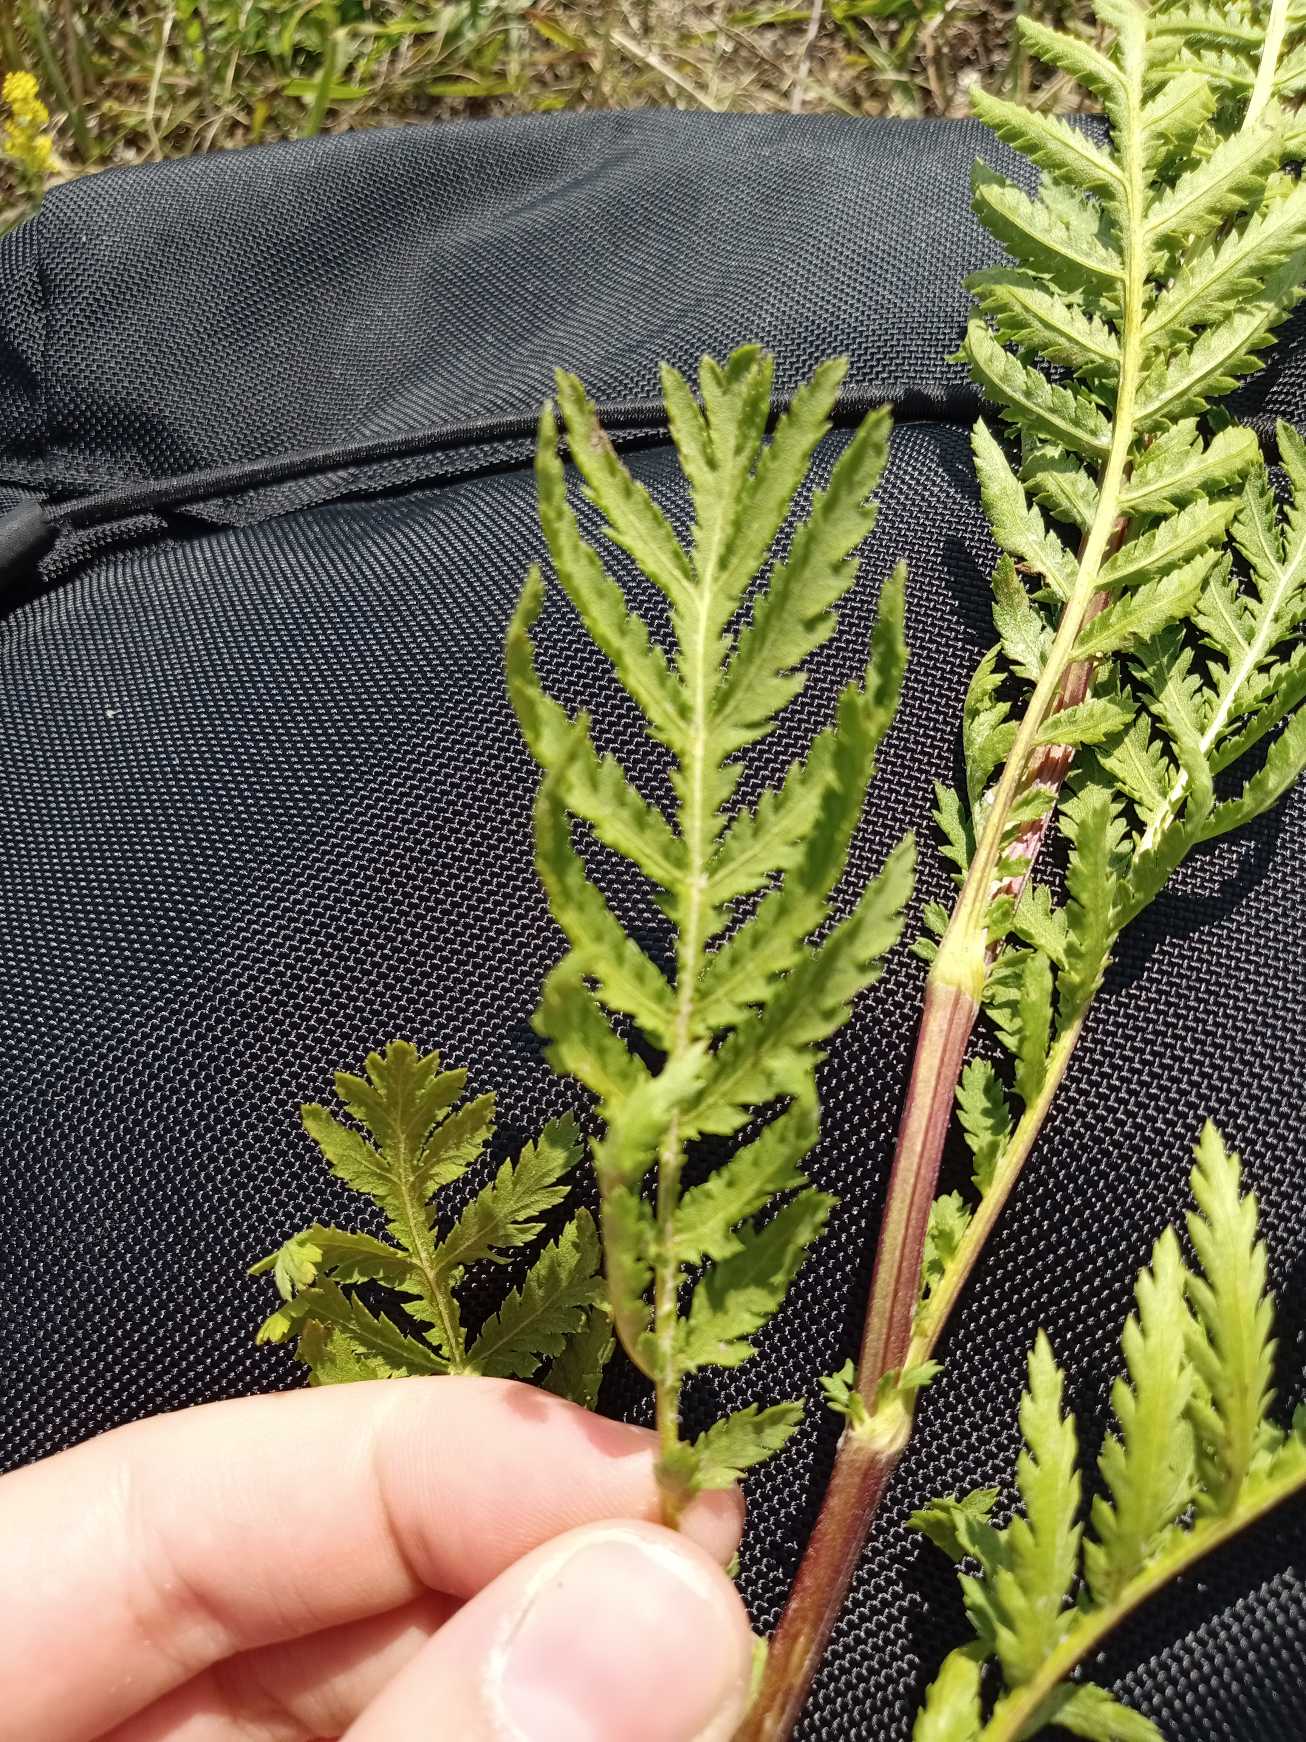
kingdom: Plantae
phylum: Tracheophyta
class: Magnoliopsida
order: Asterales
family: Asteraceae
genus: Tanacetum
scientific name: Tanacetum vulgare
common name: Rejnfan
